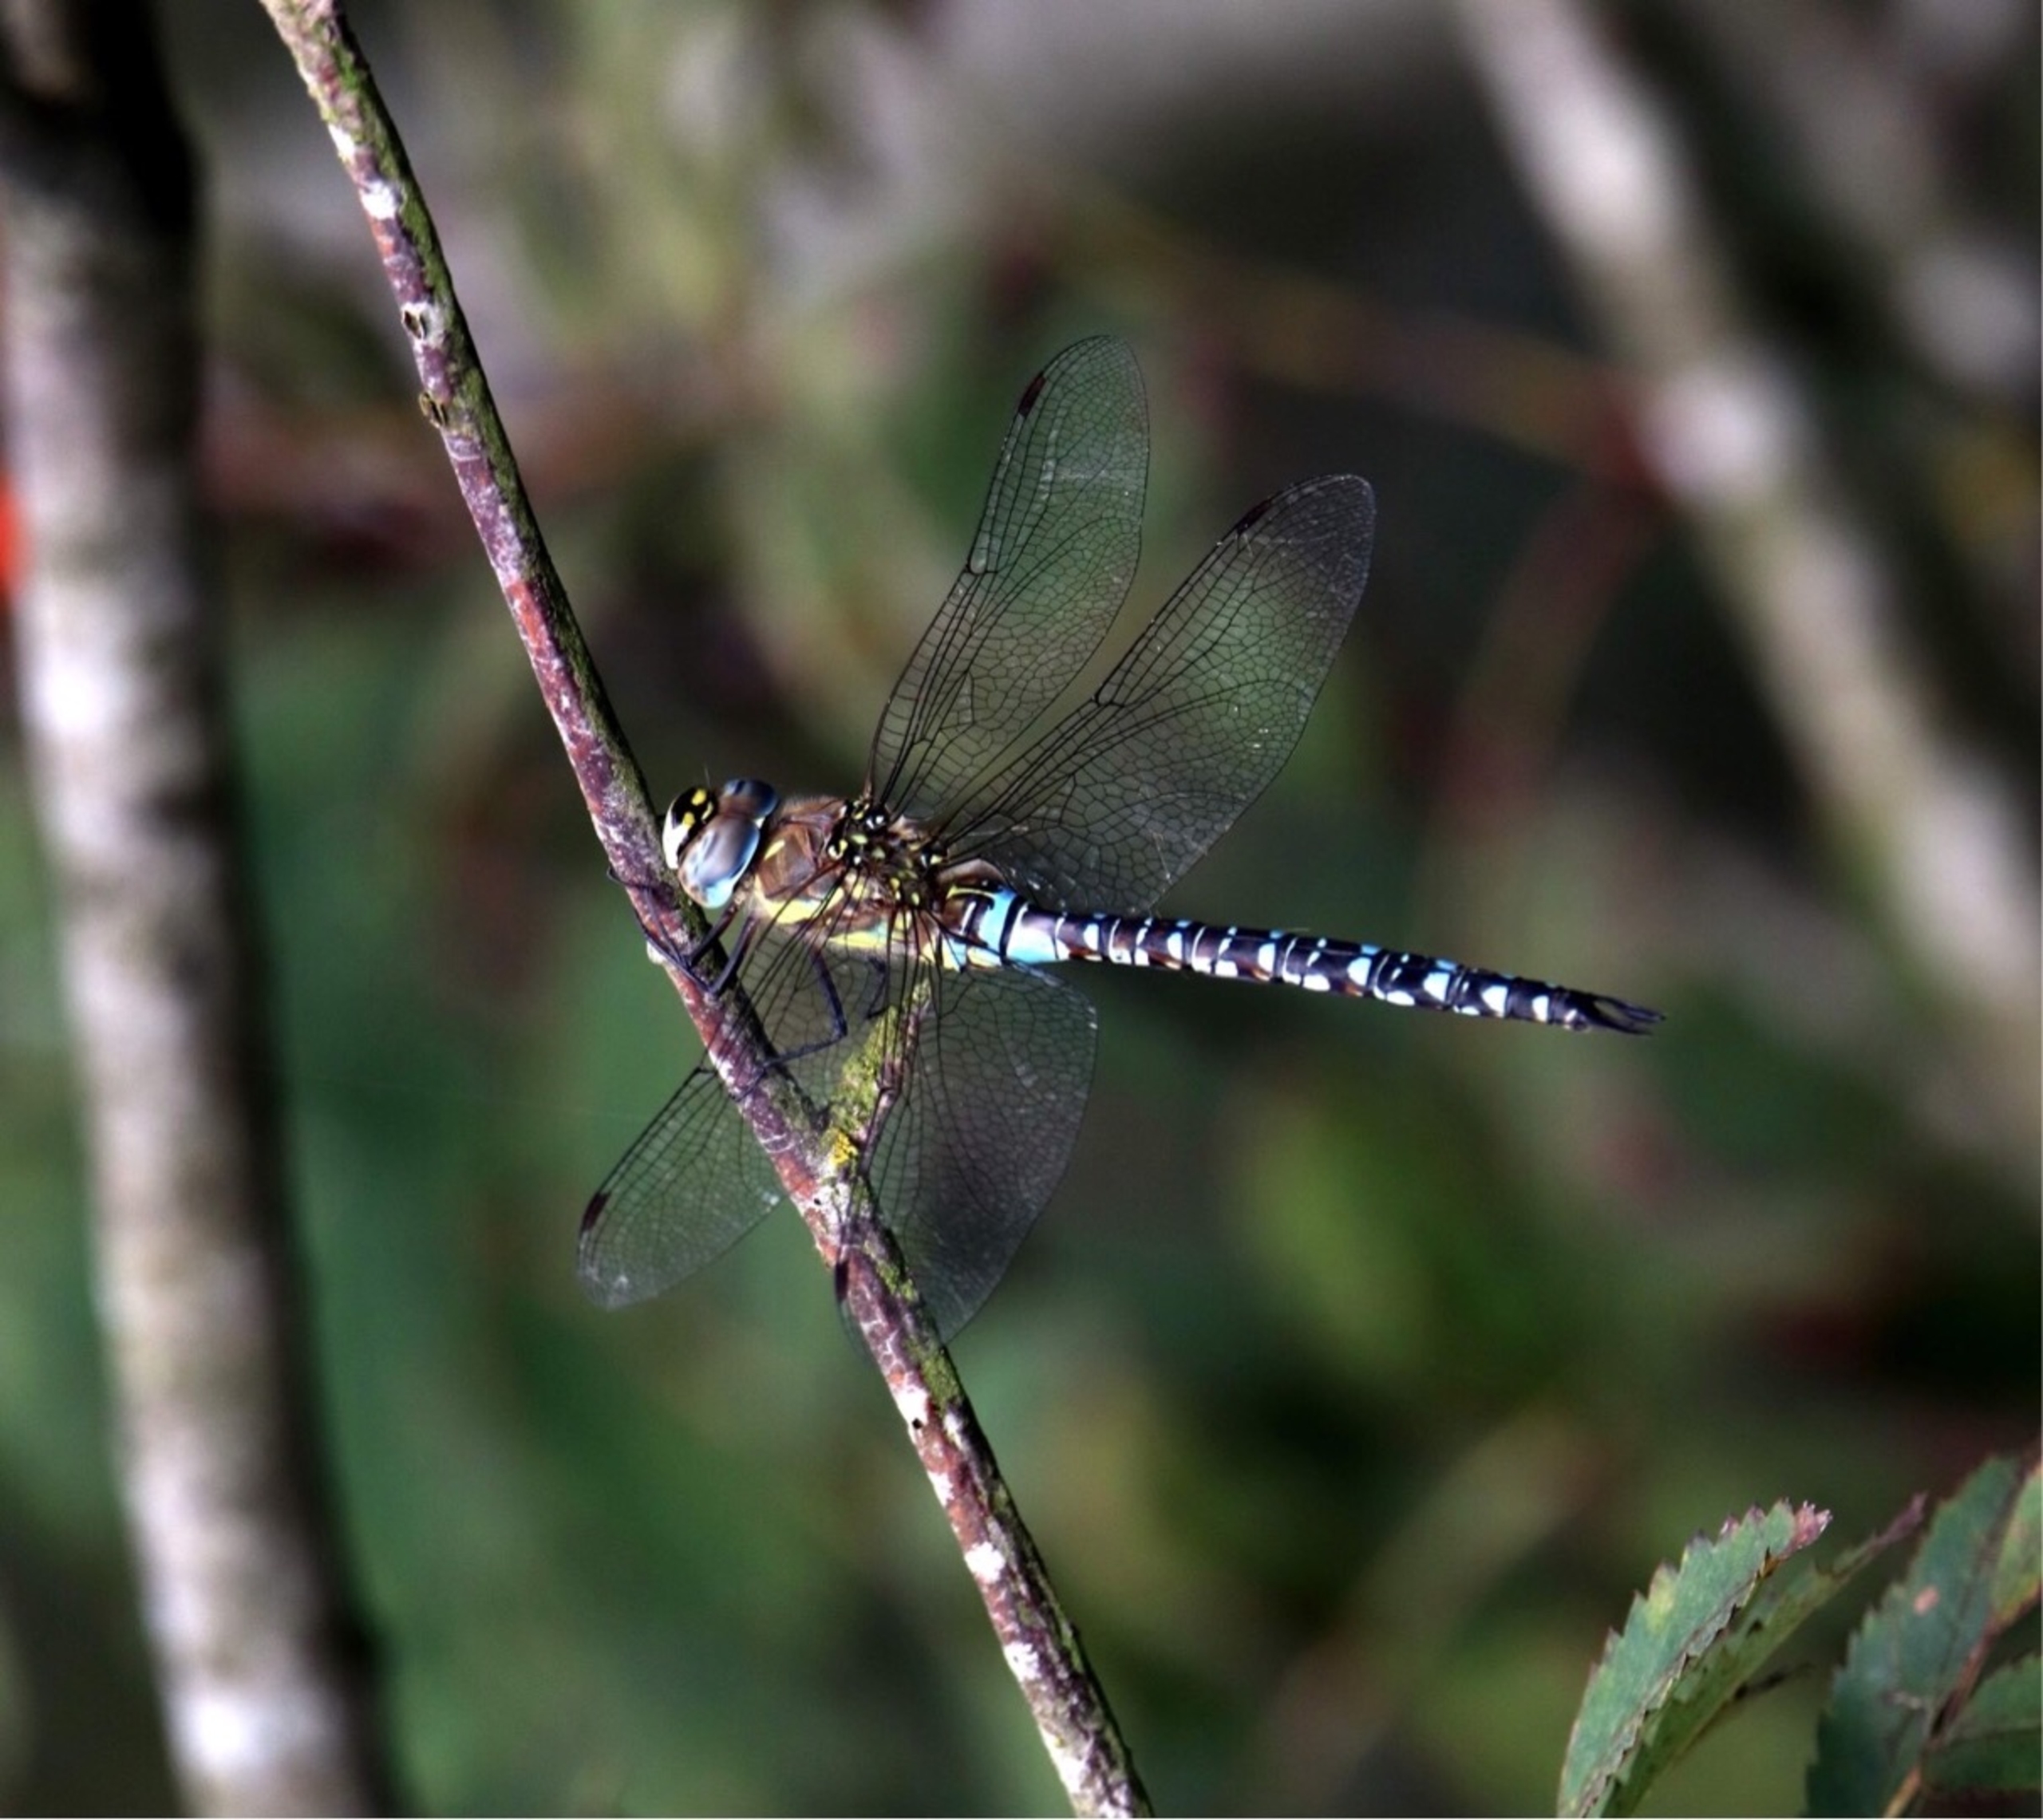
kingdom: Animalia
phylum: Arthropoda
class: Insecta
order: Odonata
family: Aeshnidae
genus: Aeshna
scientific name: Aeshna mixta
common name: Efterårs-mosaikguldsmed
